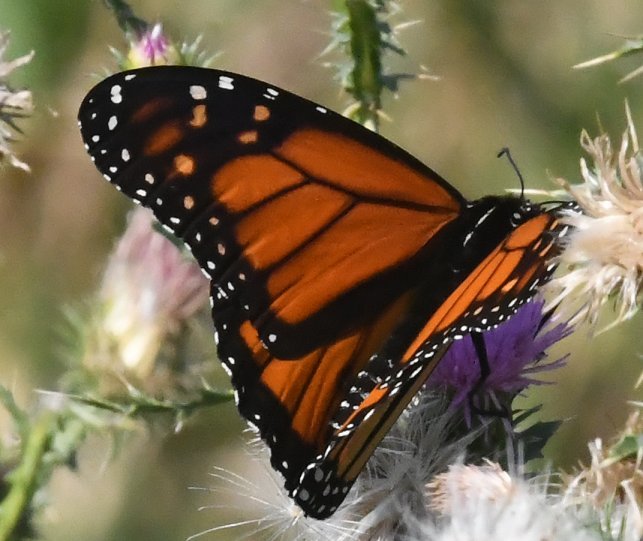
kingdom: Animalia
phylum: Arthropoda
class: Insecta
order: Lepidoptera
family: Nymphalidae
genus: Danaus
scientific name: Danaus plexippus
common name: Monarch
